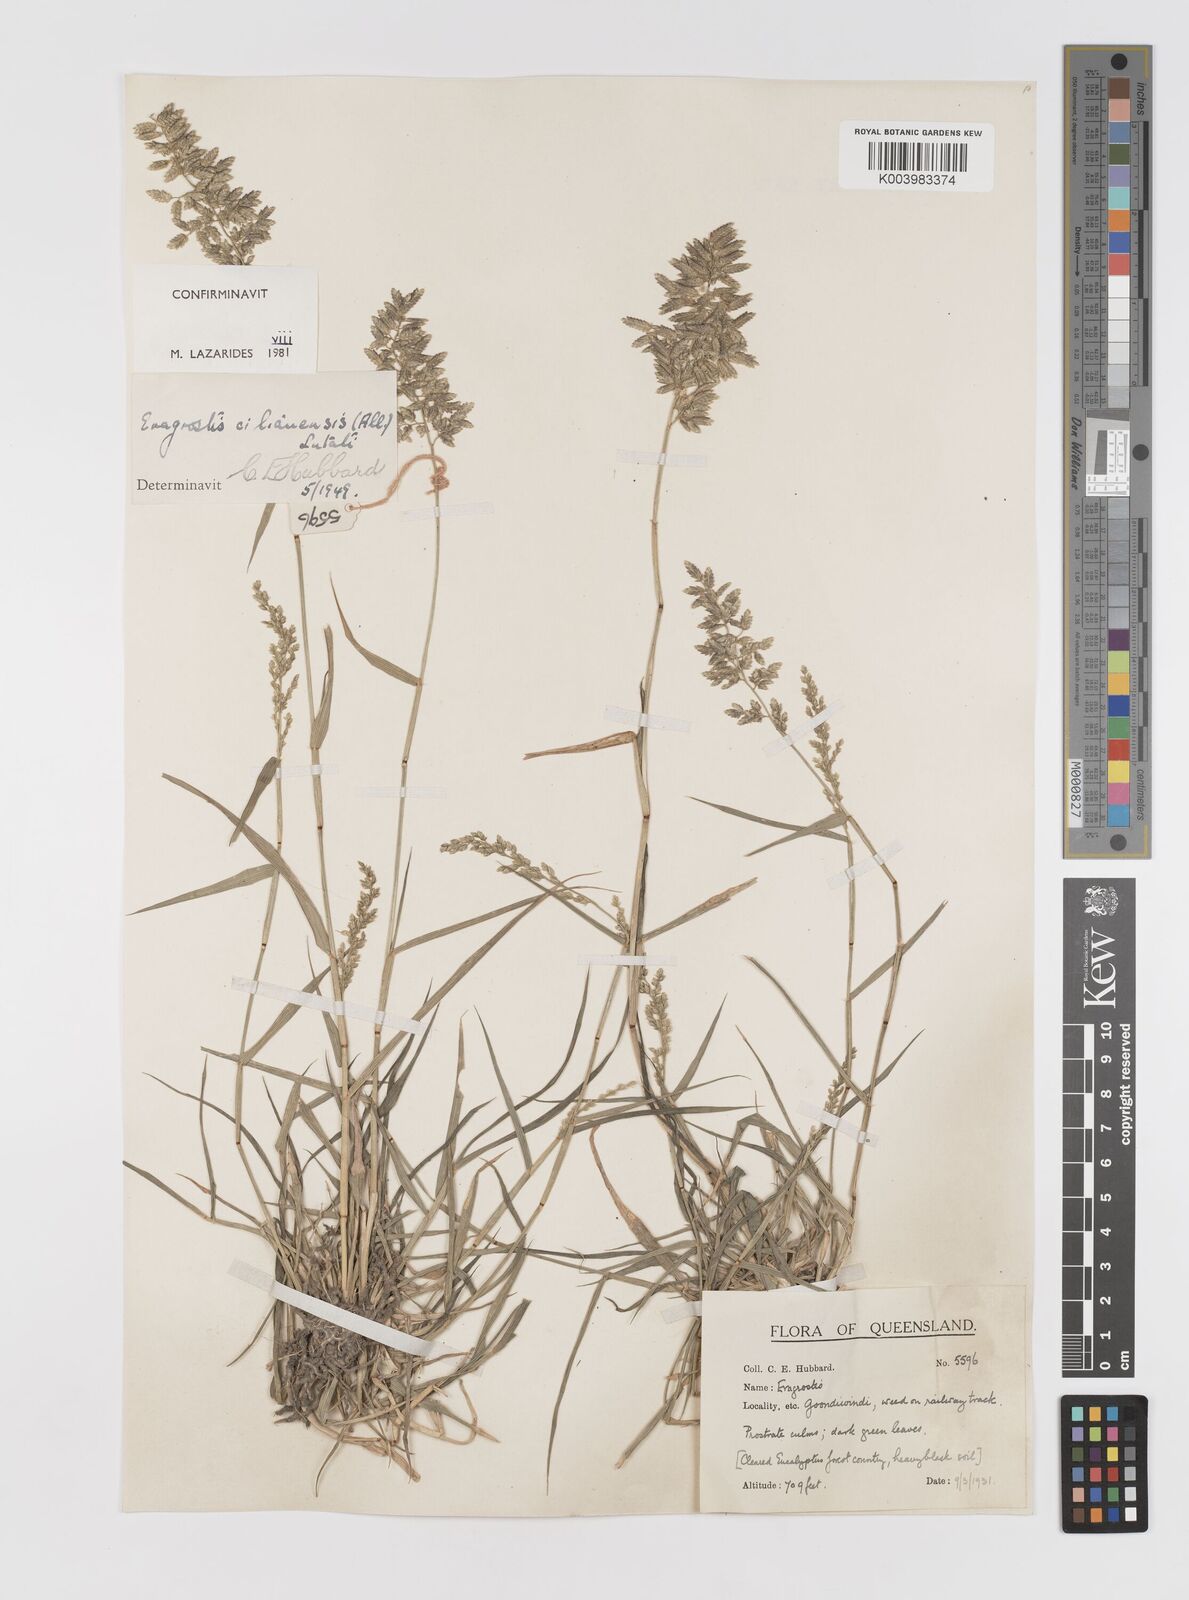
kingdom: Plantae
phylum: Tracheophyta
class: Liliopsida
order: Poales
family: Poaceae
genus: Eragrostis
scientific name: Eragrostis cilianensis
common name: Stinkgrass
